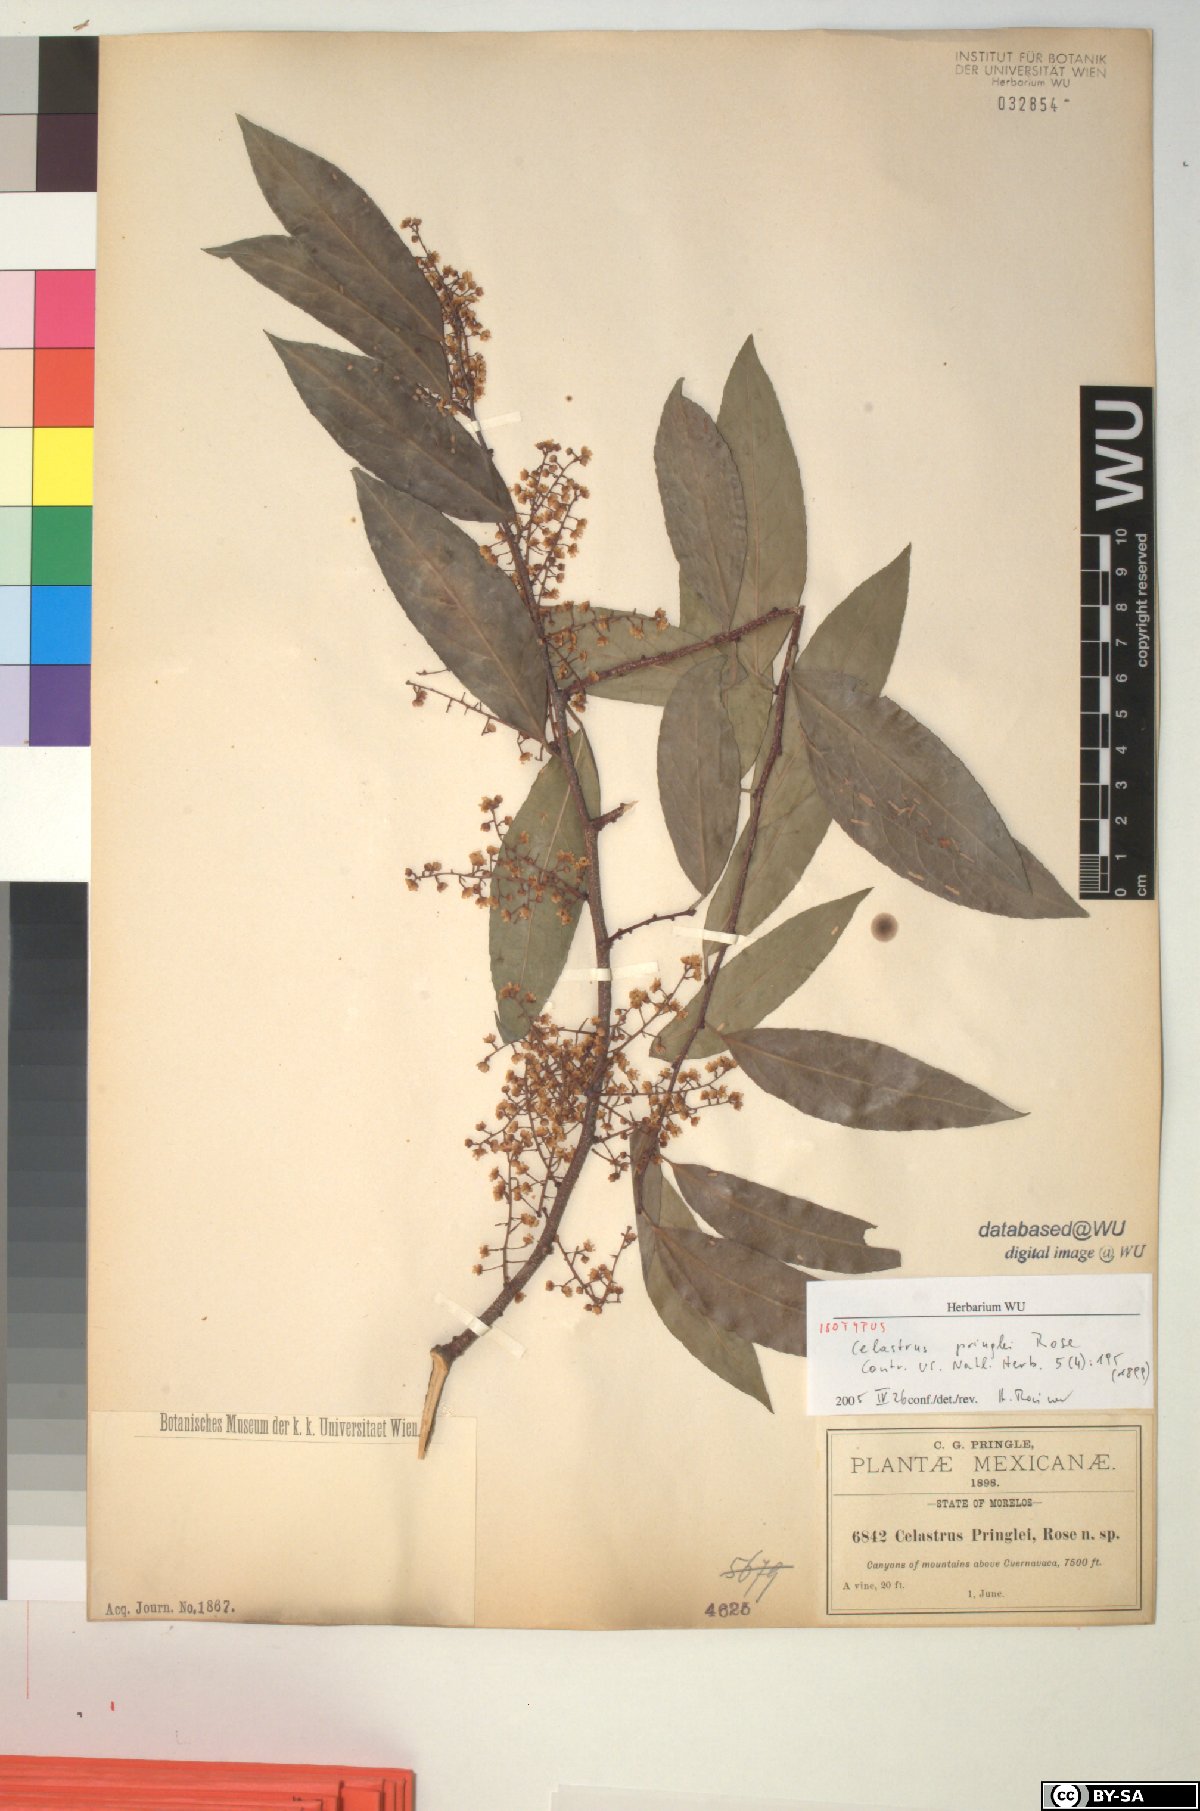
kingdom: Plantae
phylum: Tracheophyta
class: Magnoliopsida
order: Celastrales
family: Celastraceae
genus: Celastrus
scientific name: Celastrus pringlei
